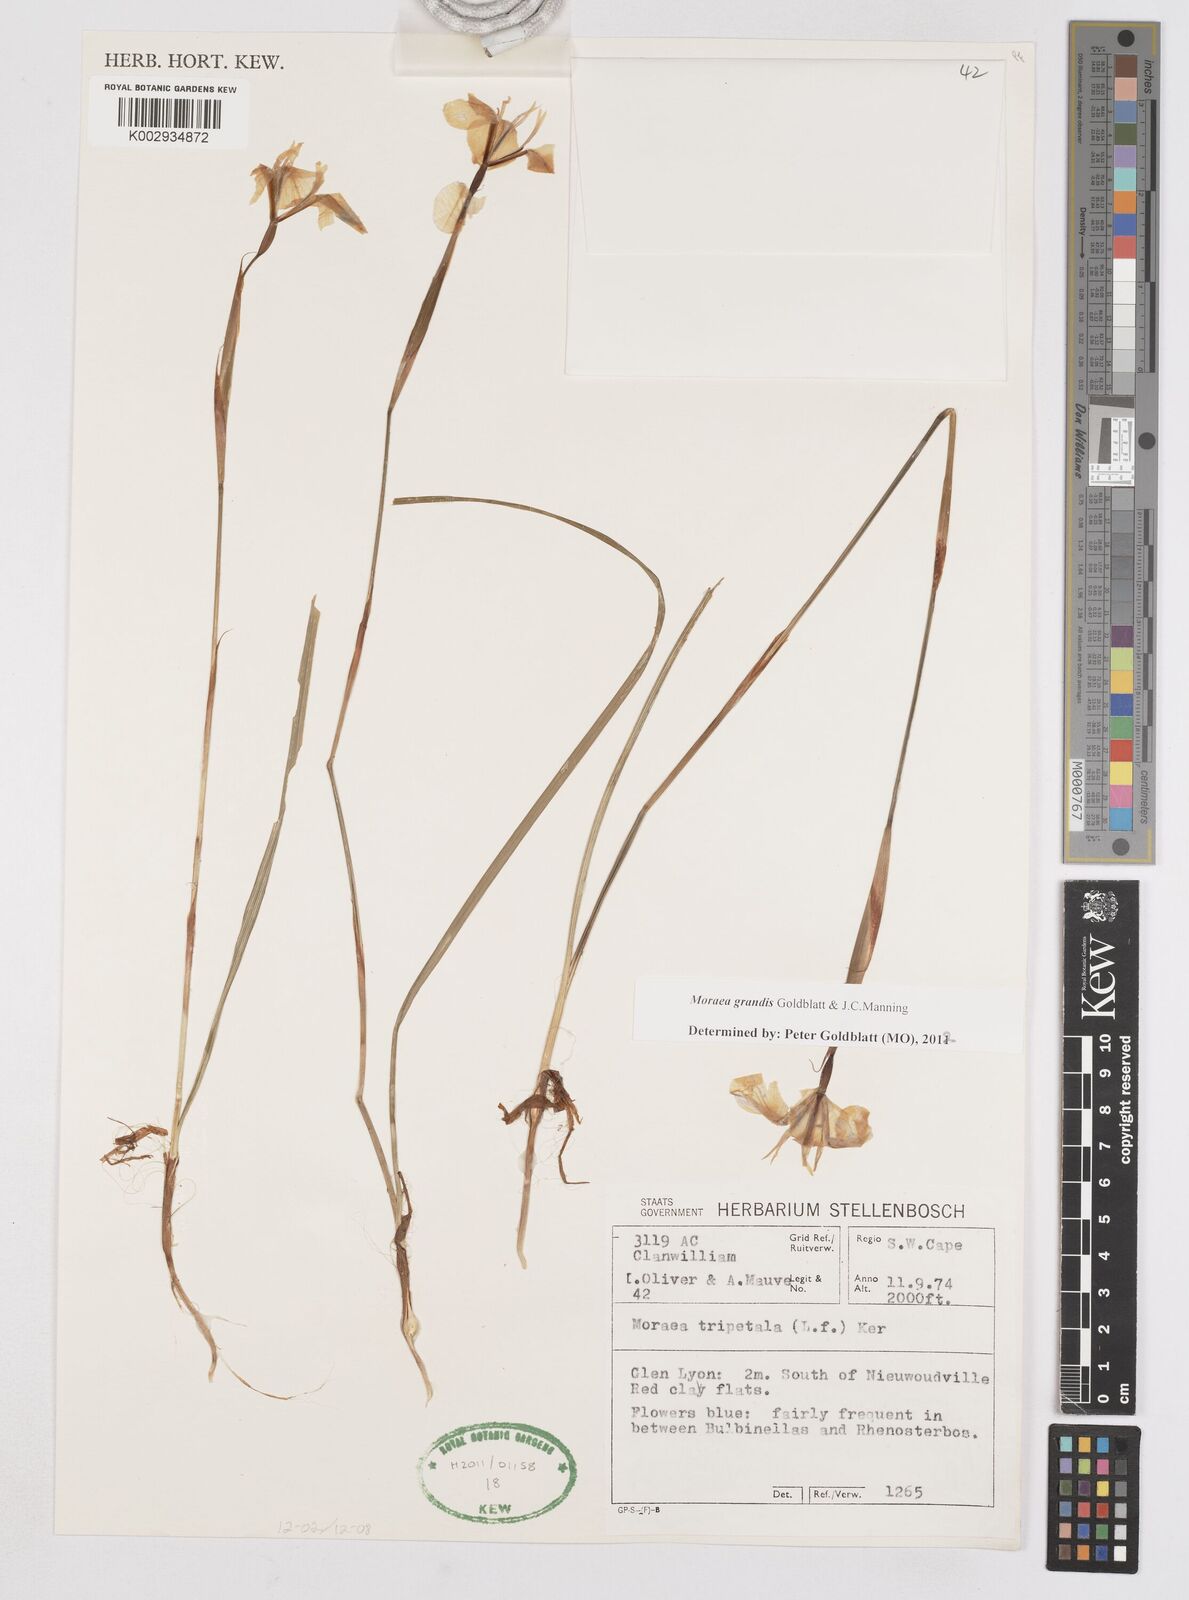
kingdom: Plantae
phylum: Tracheophyta
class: Liliopsida
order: Asparagales
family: Iridaceae
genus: Moraea
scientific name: Moraea grandis
